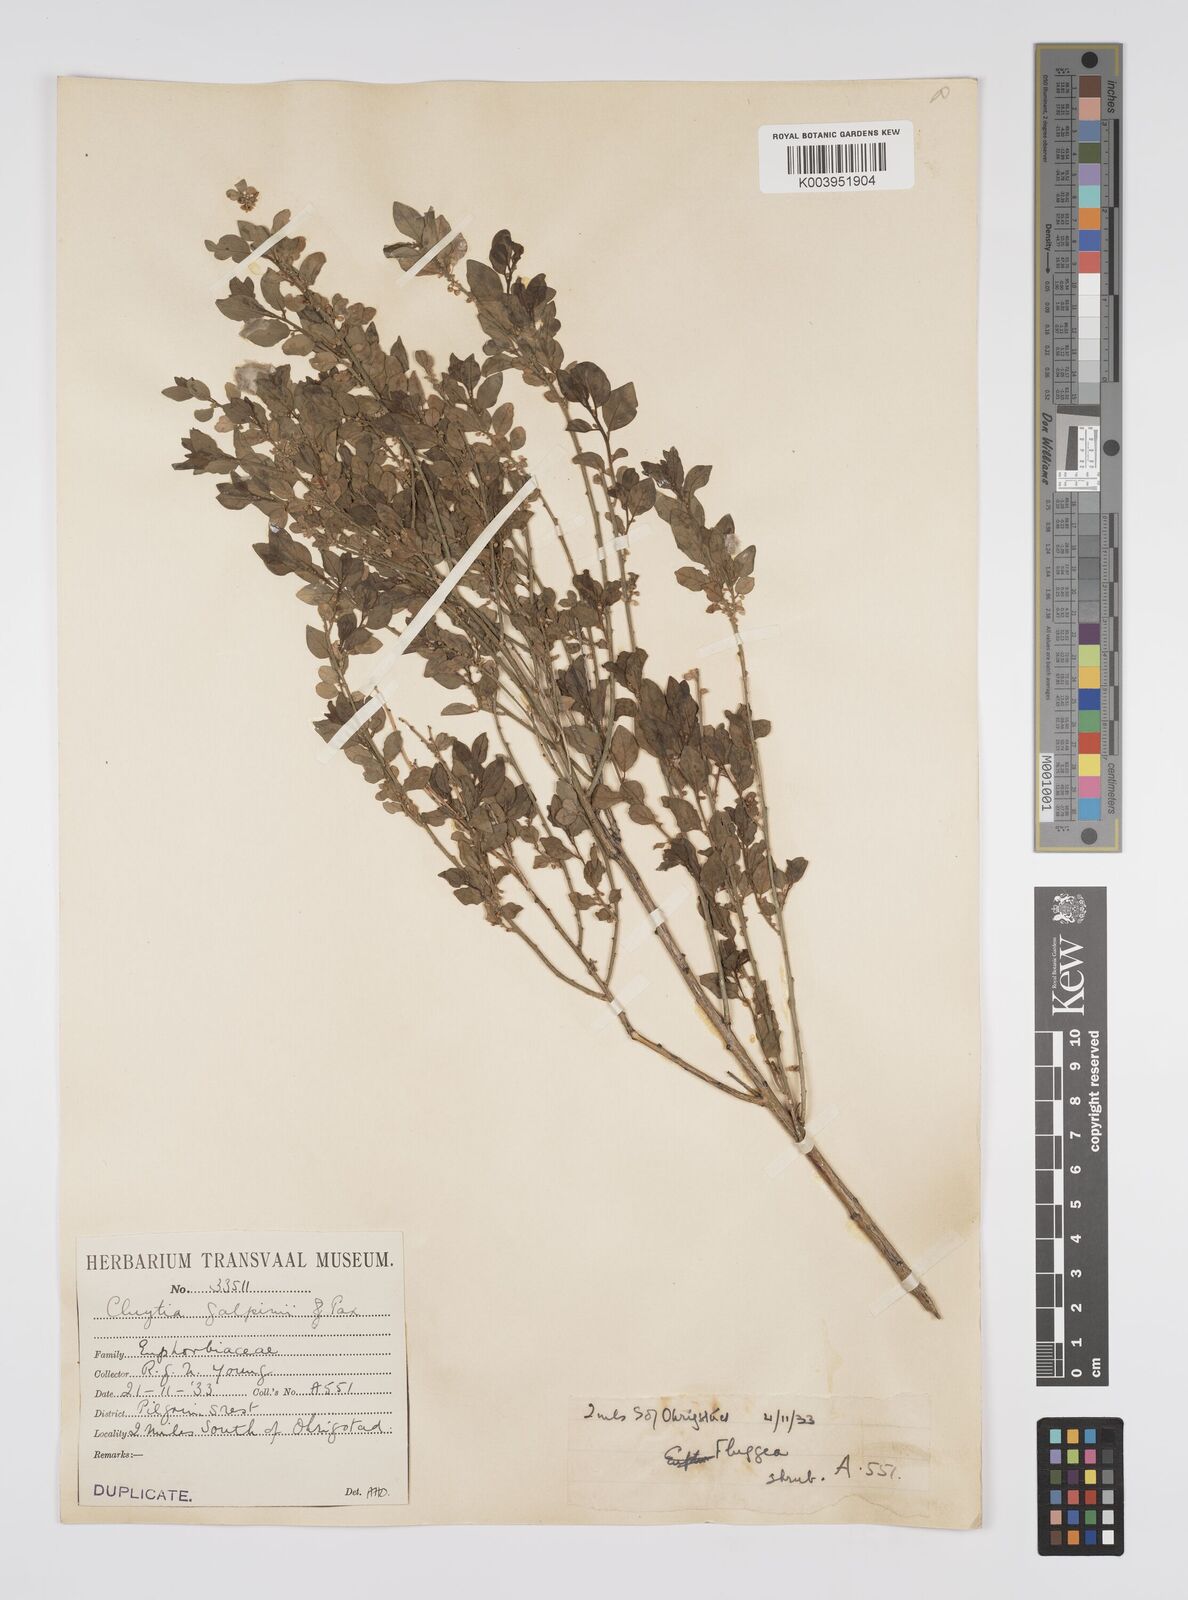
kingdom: Plantae
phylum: Tracheophyta
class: Magnoliopsida
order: Malpighiales
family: Peraceae
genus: Clutia
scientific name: Clutia galpinii
